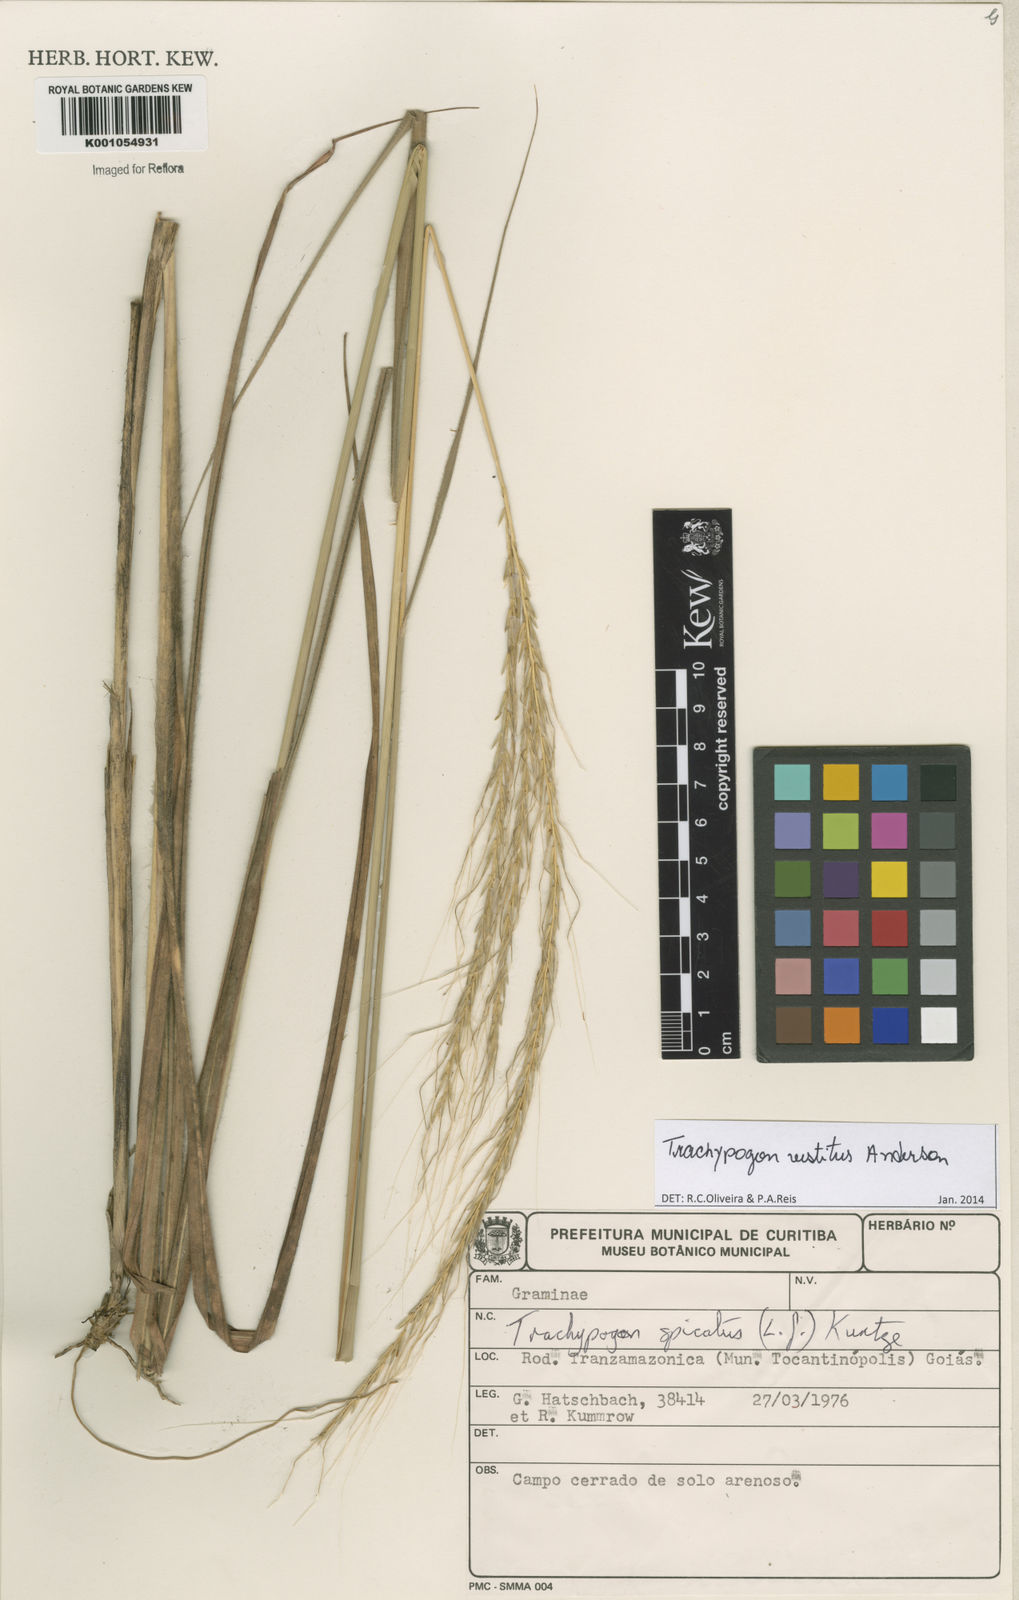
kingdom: Plantae
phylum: Tracheophyta
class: Liliopsida
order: Poales
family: Poaceae
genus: Trachypogon
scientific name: Trachypogon vestitus
